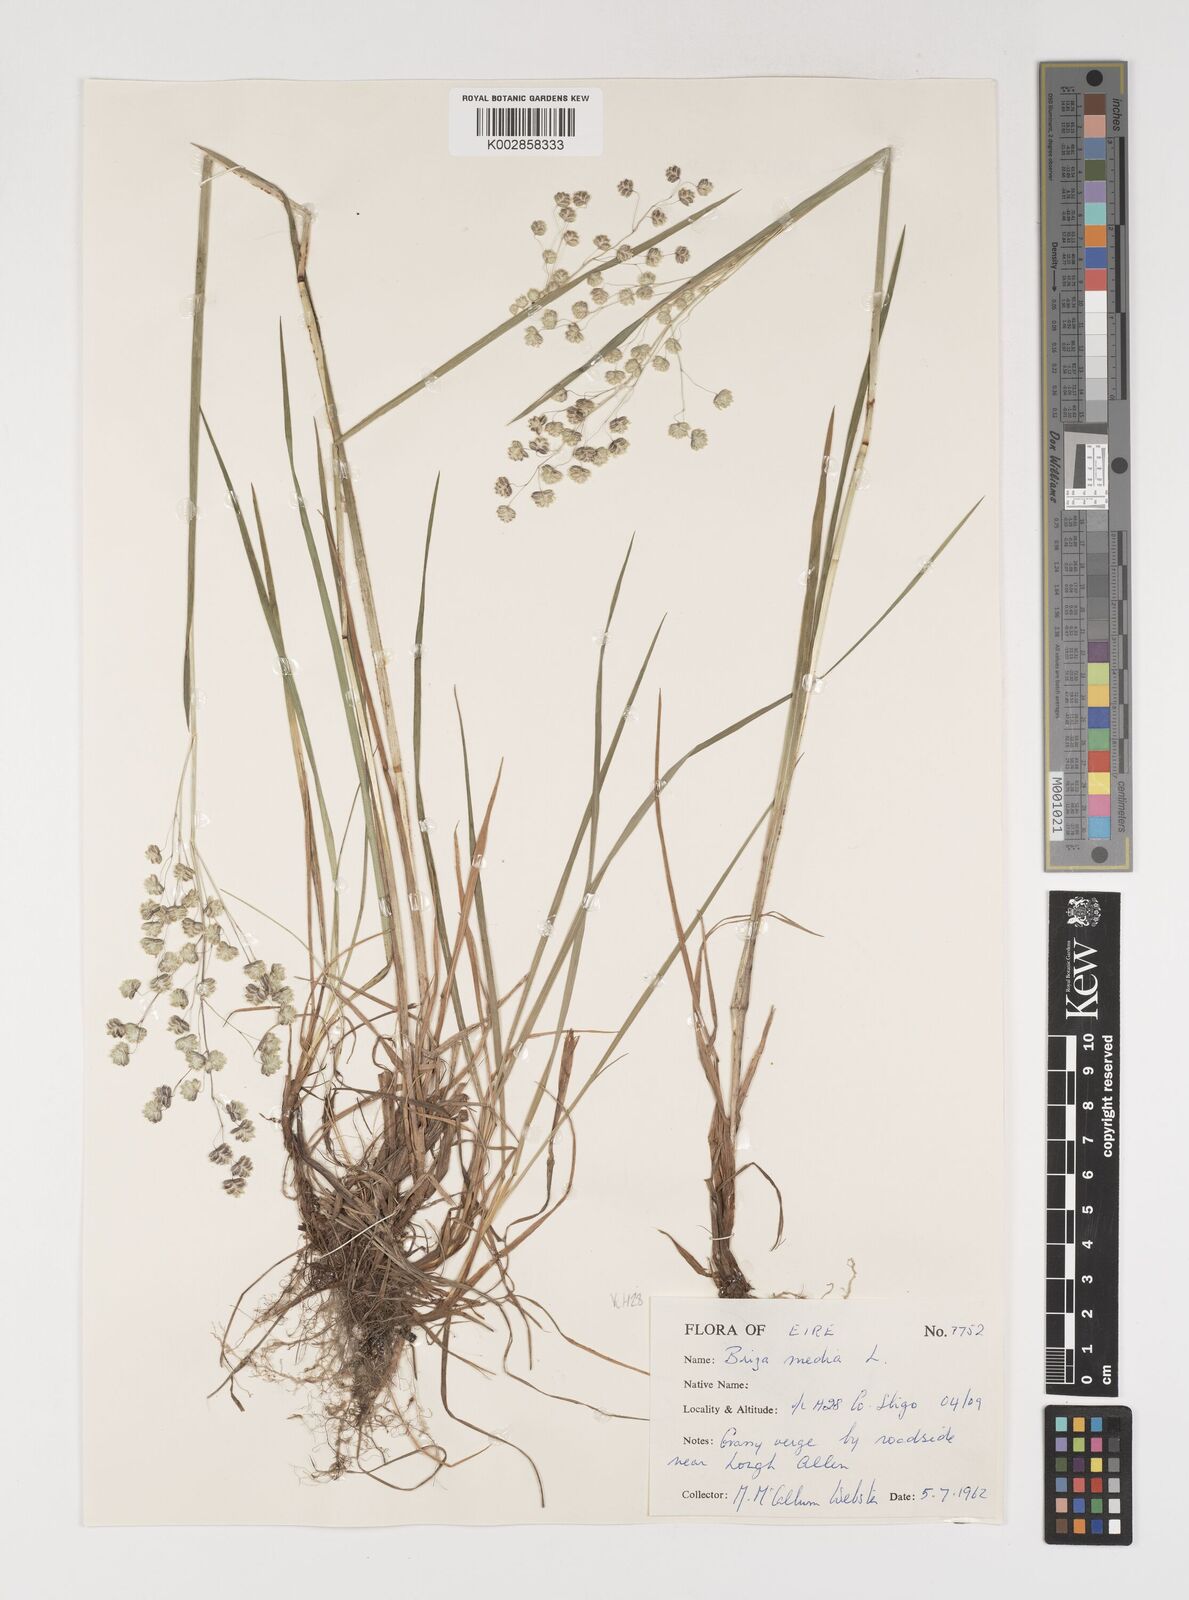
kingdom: Plantae
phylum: Tracheophyta
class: Liliopsida
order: Poales
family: Poaceae
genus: Briza
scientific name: Briza media
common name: Quaking grass
